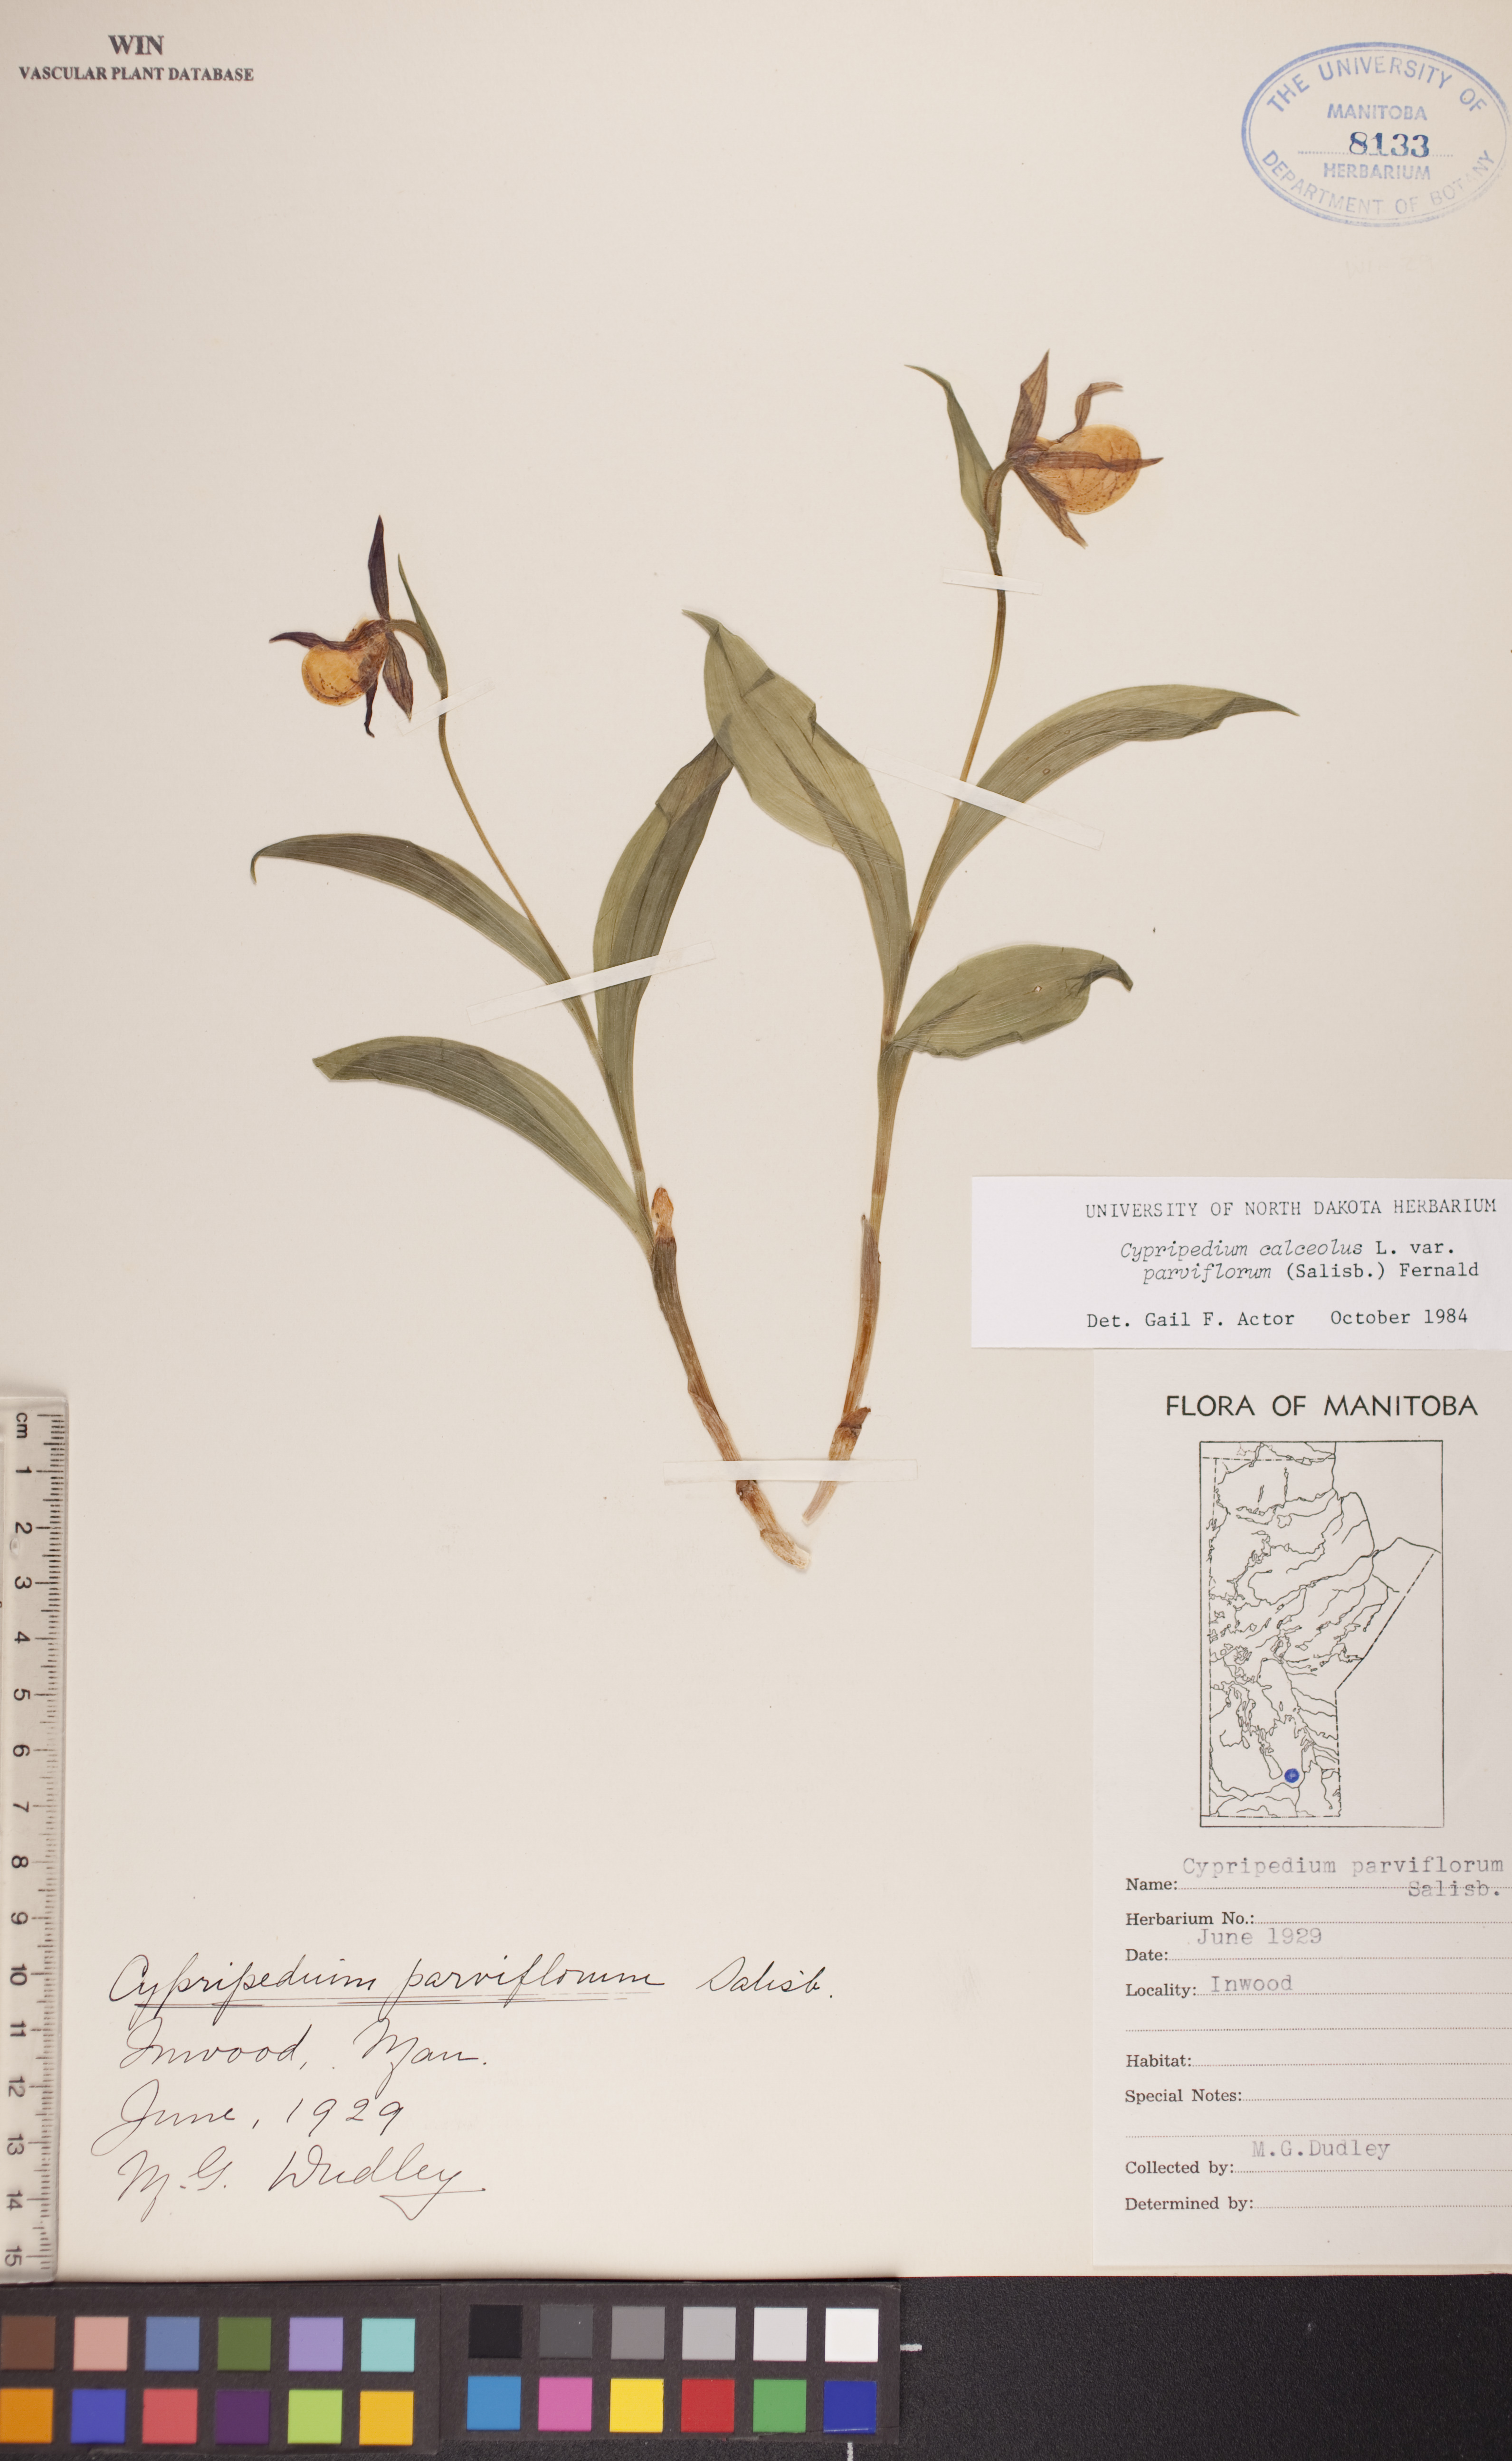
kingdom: Plantae
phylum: Tracheophyta
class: Liliopsida
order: Asparagales
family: Orchidaceae
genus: Cypripedium
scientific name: Cypripedium parviflorum
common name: American yellow lady's-slipper
